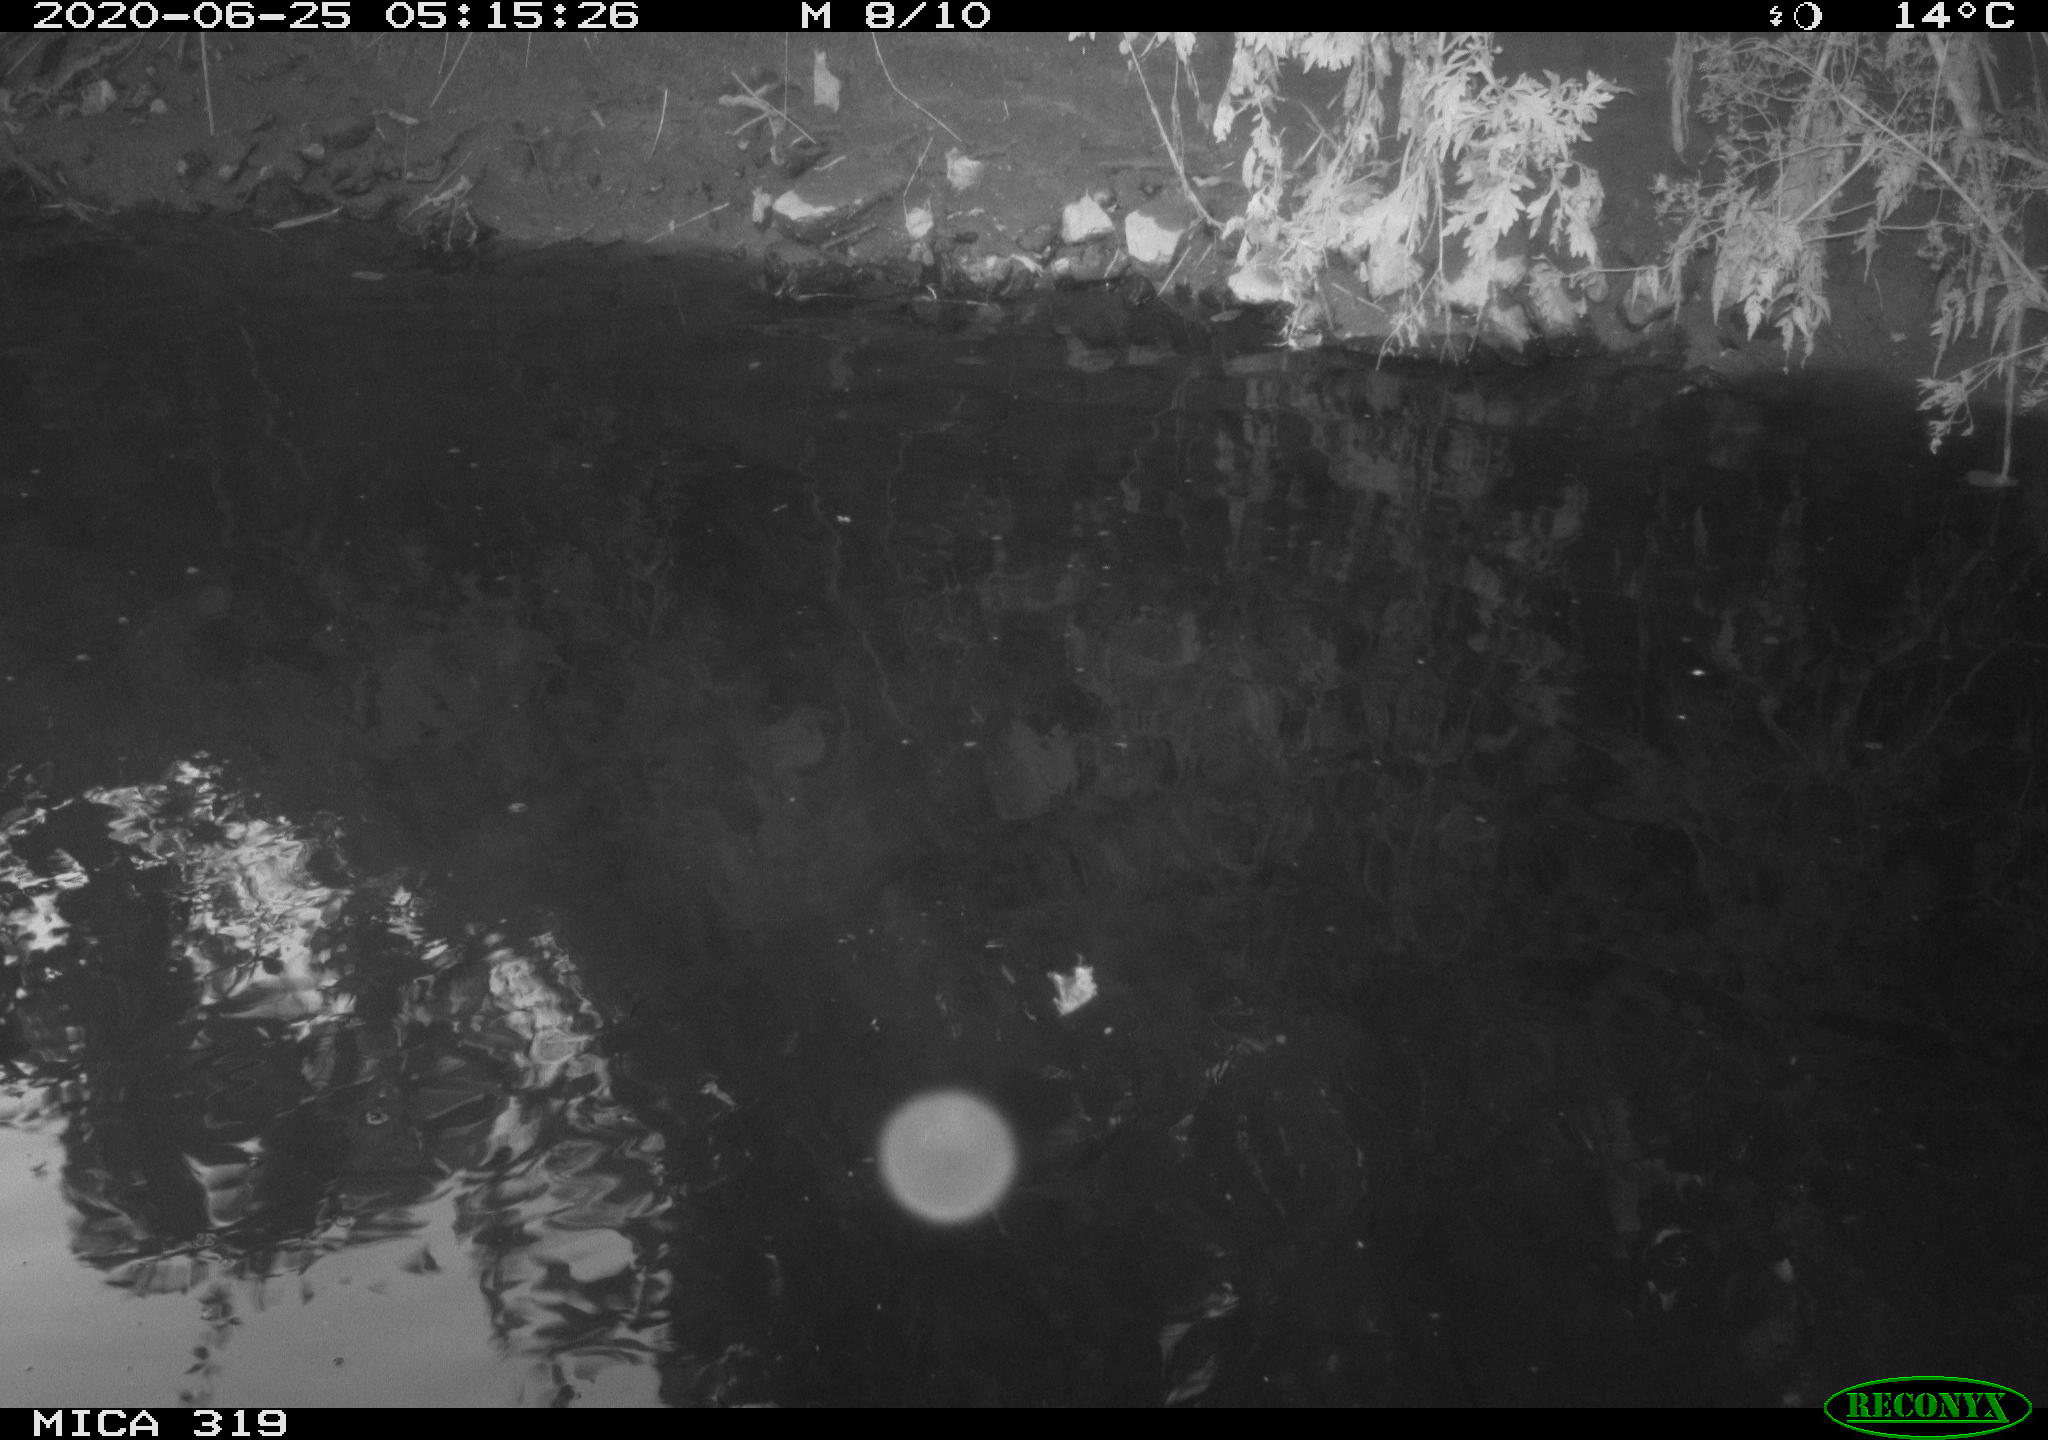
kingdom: Animalia
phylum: Chordata
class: Aves
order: Anseriformes
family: Anatidae
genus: Anas
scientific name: Anas platyrhynchos
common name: Mallard
